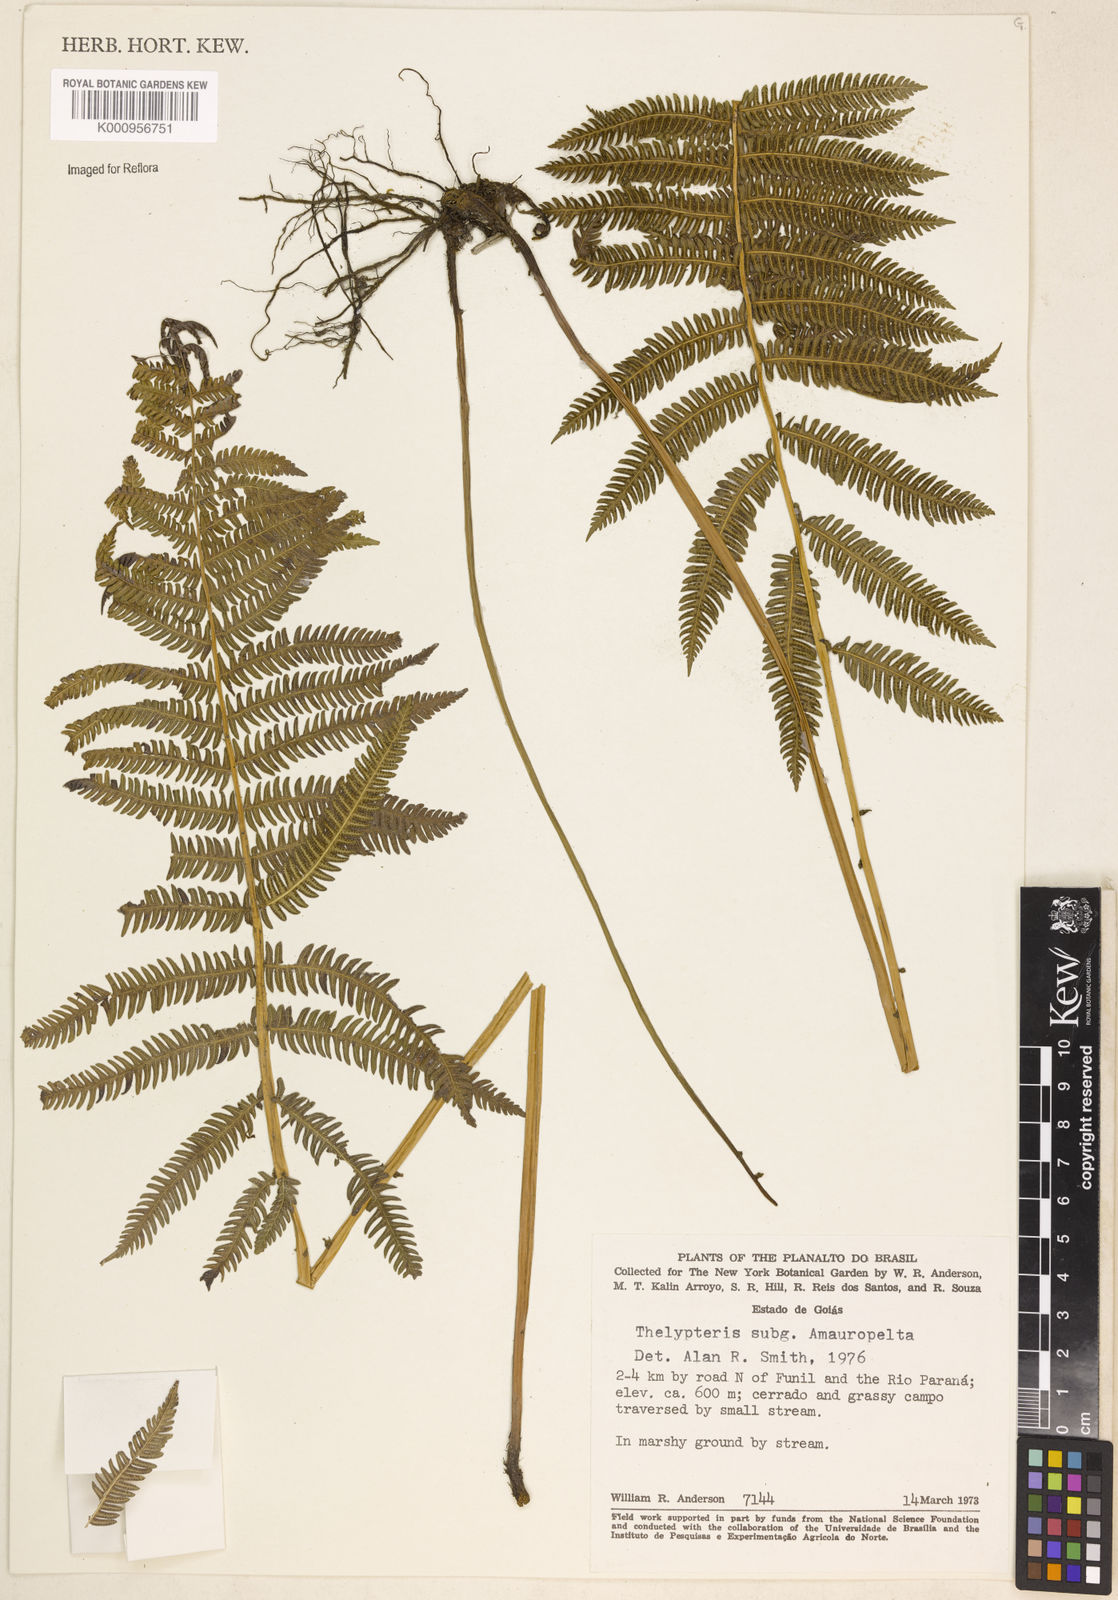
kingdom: Plantae
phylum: Tracheophyta
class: Polypodiopsida
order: Polypodiales
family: Thelypteridaceae
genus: Amauropelta
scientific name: Amauropelta
